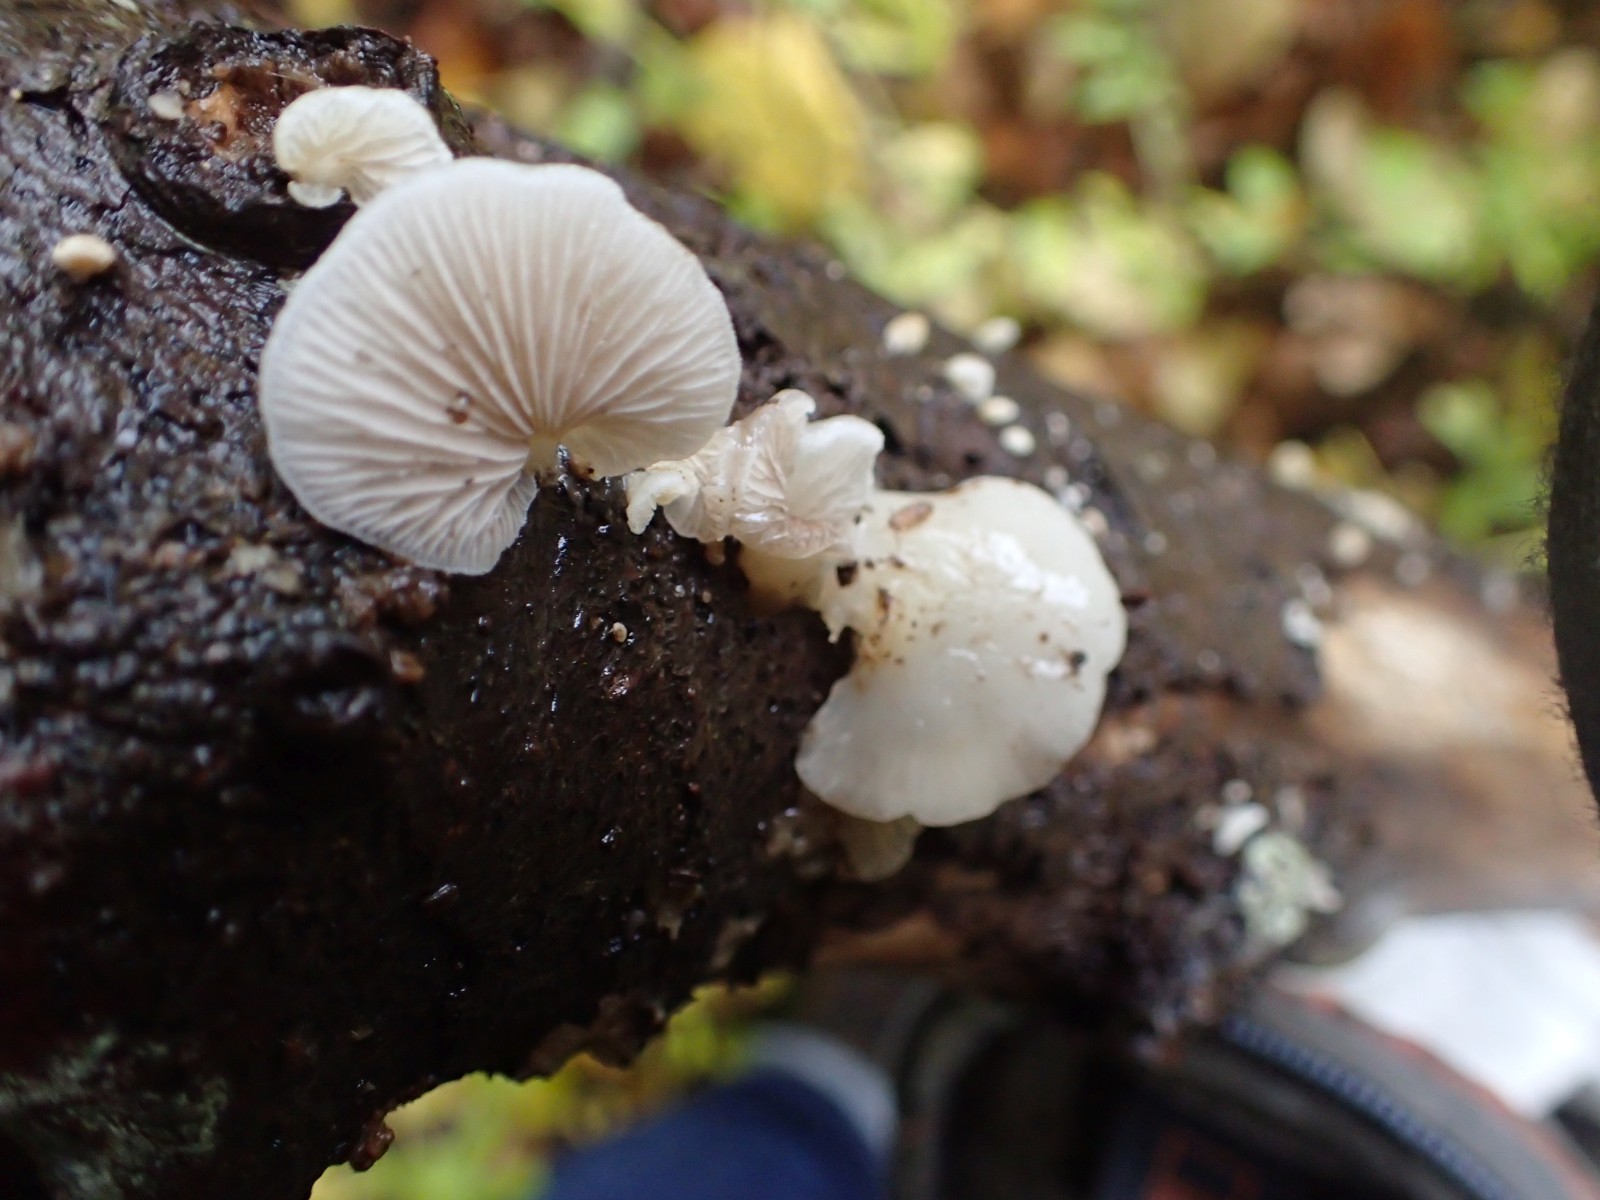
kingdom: Fungi
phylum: Basidiomycota
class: Agaricomycetes
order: Agaricales
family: Crepidotaceae
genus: Crepidotus
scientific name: Crepidotus
